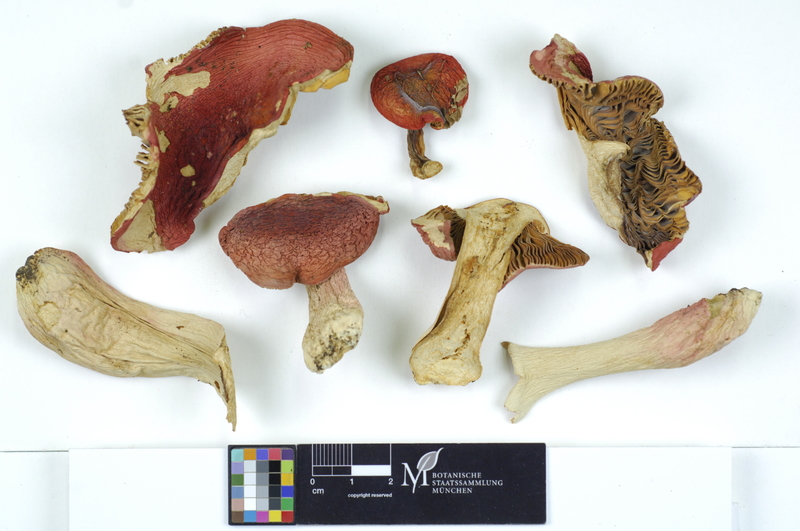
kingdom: Fungi
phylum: Basidiomycota
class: Agaricomycetes
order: Russulales
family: Russulaceae
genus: Russula
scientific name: Russula rosea
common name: Rosy brittlegill
